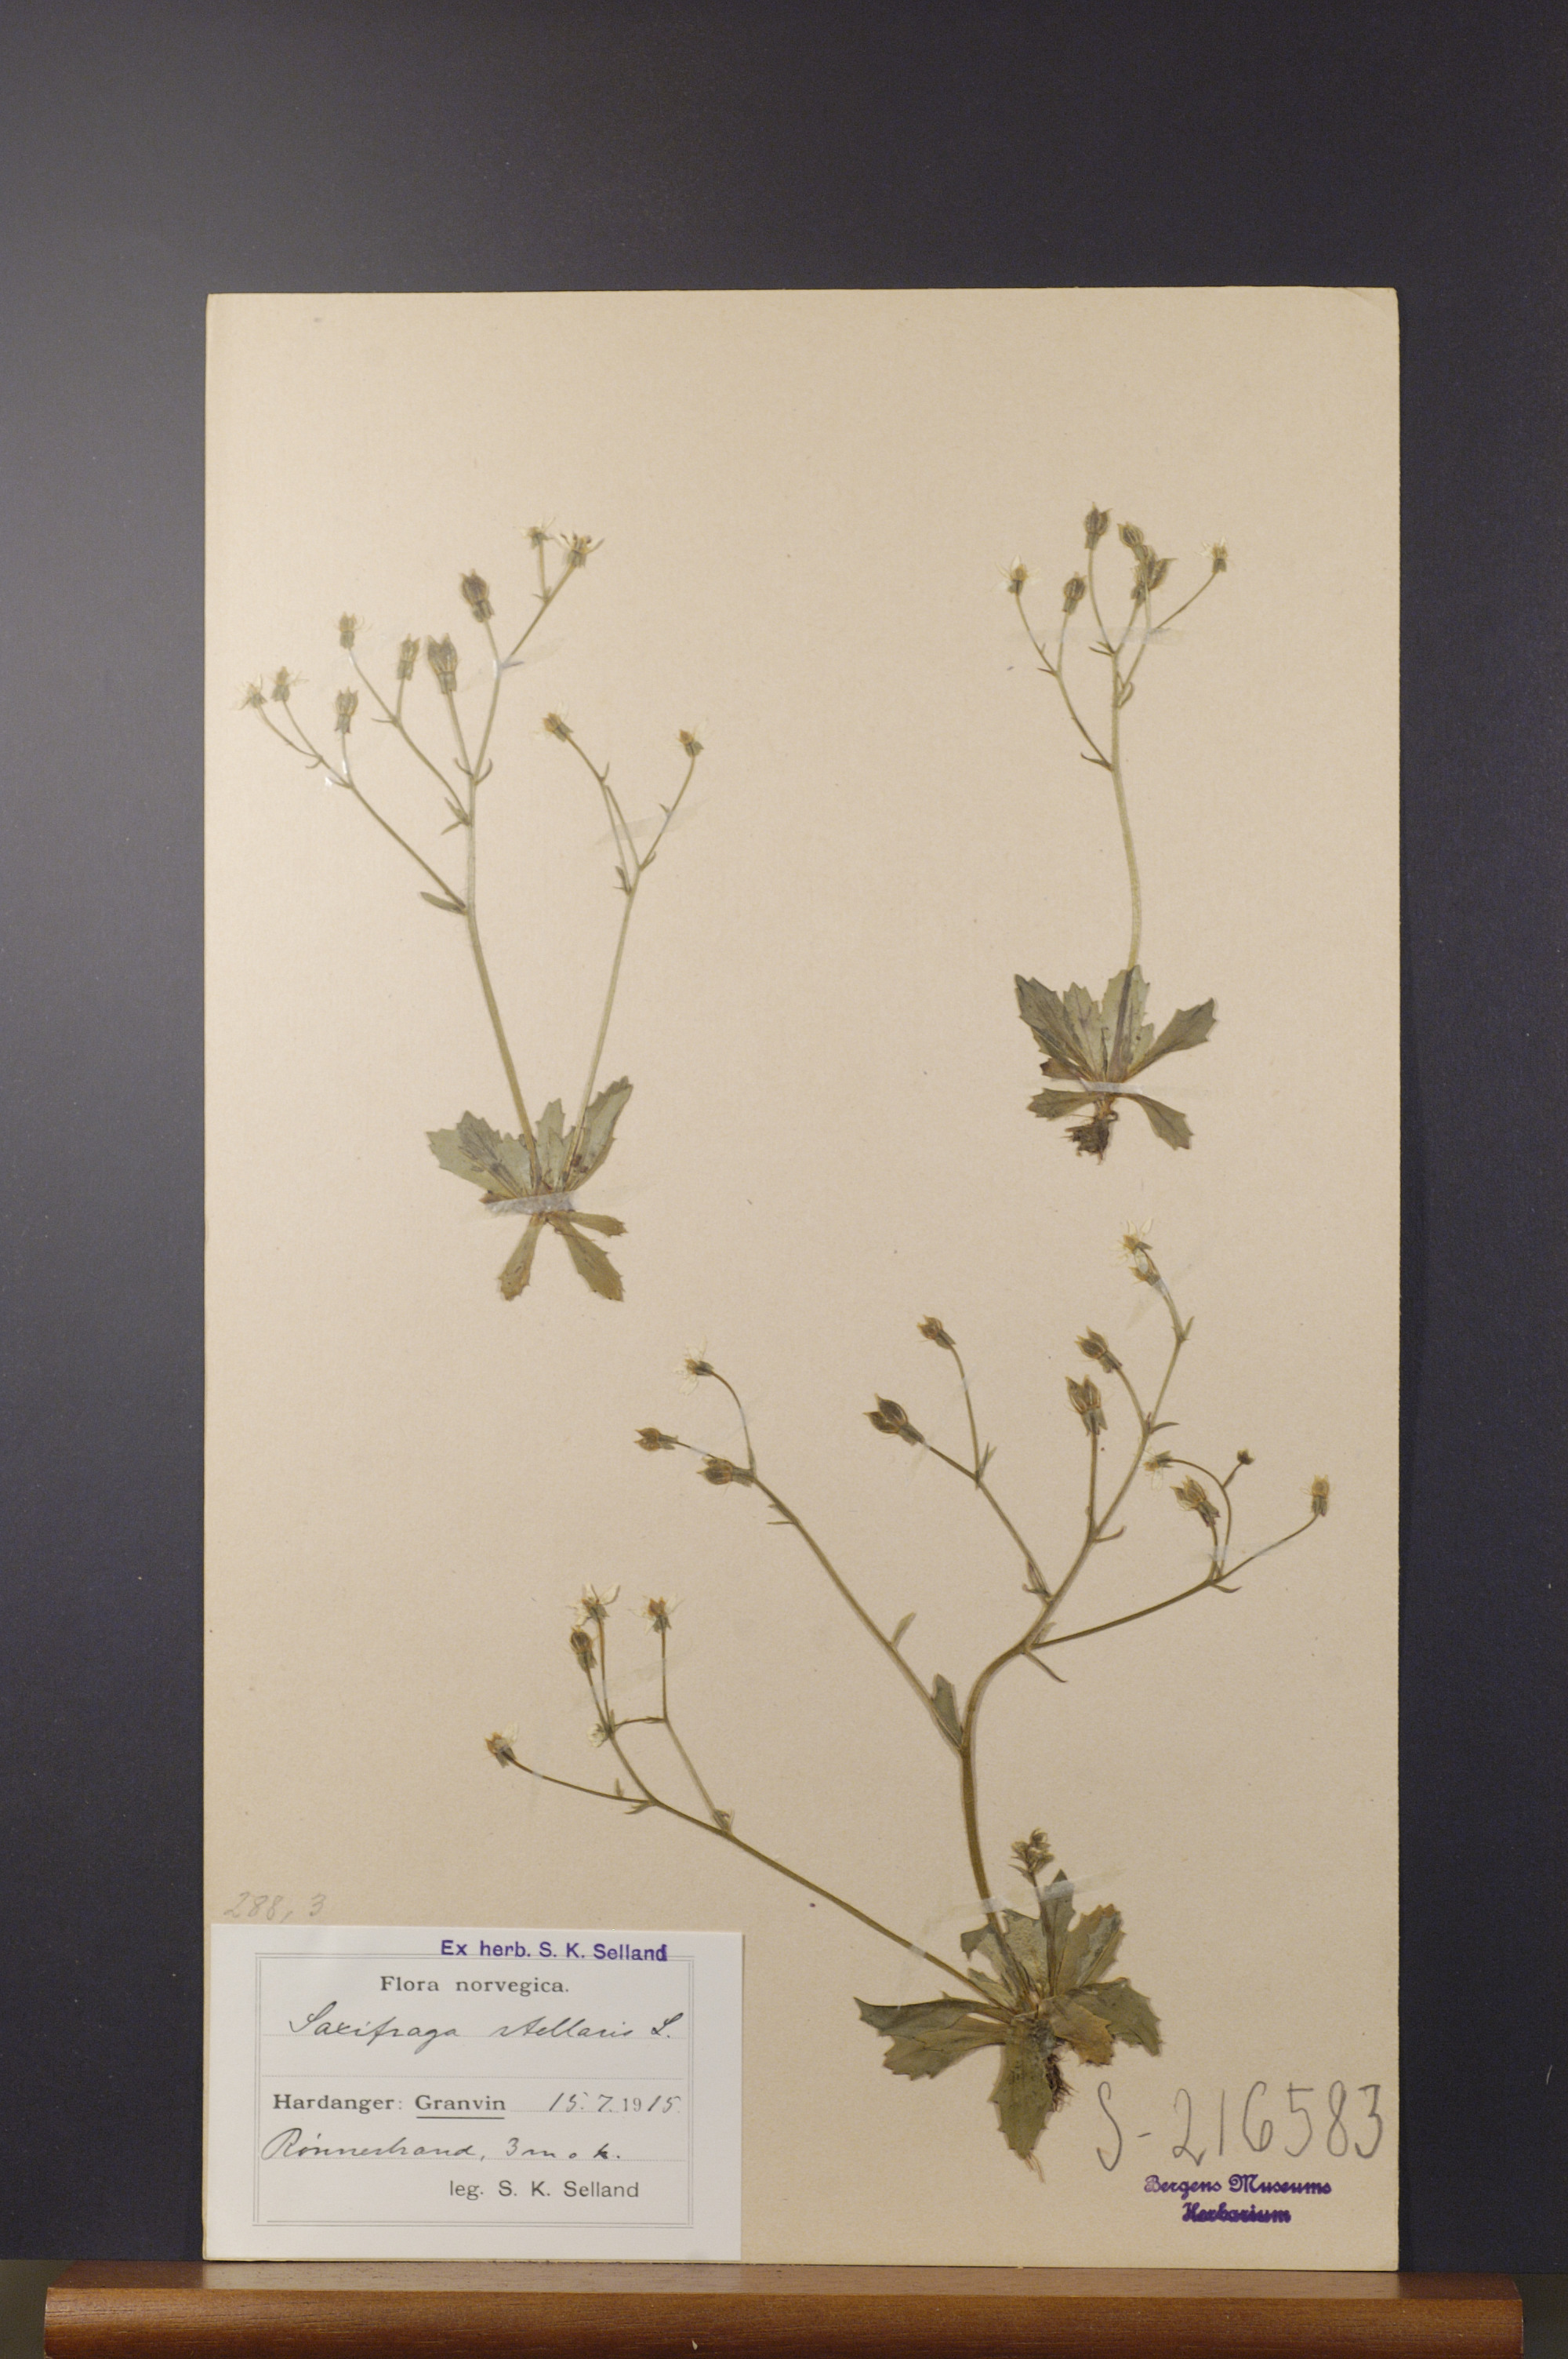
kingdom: Plantae
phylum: Tracheophyta
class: Magnoliopsida
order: Saxifragales
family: Saxifragaceae
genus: Micranthes
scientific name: Micranthes stellaris
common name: Starry saxifrage
